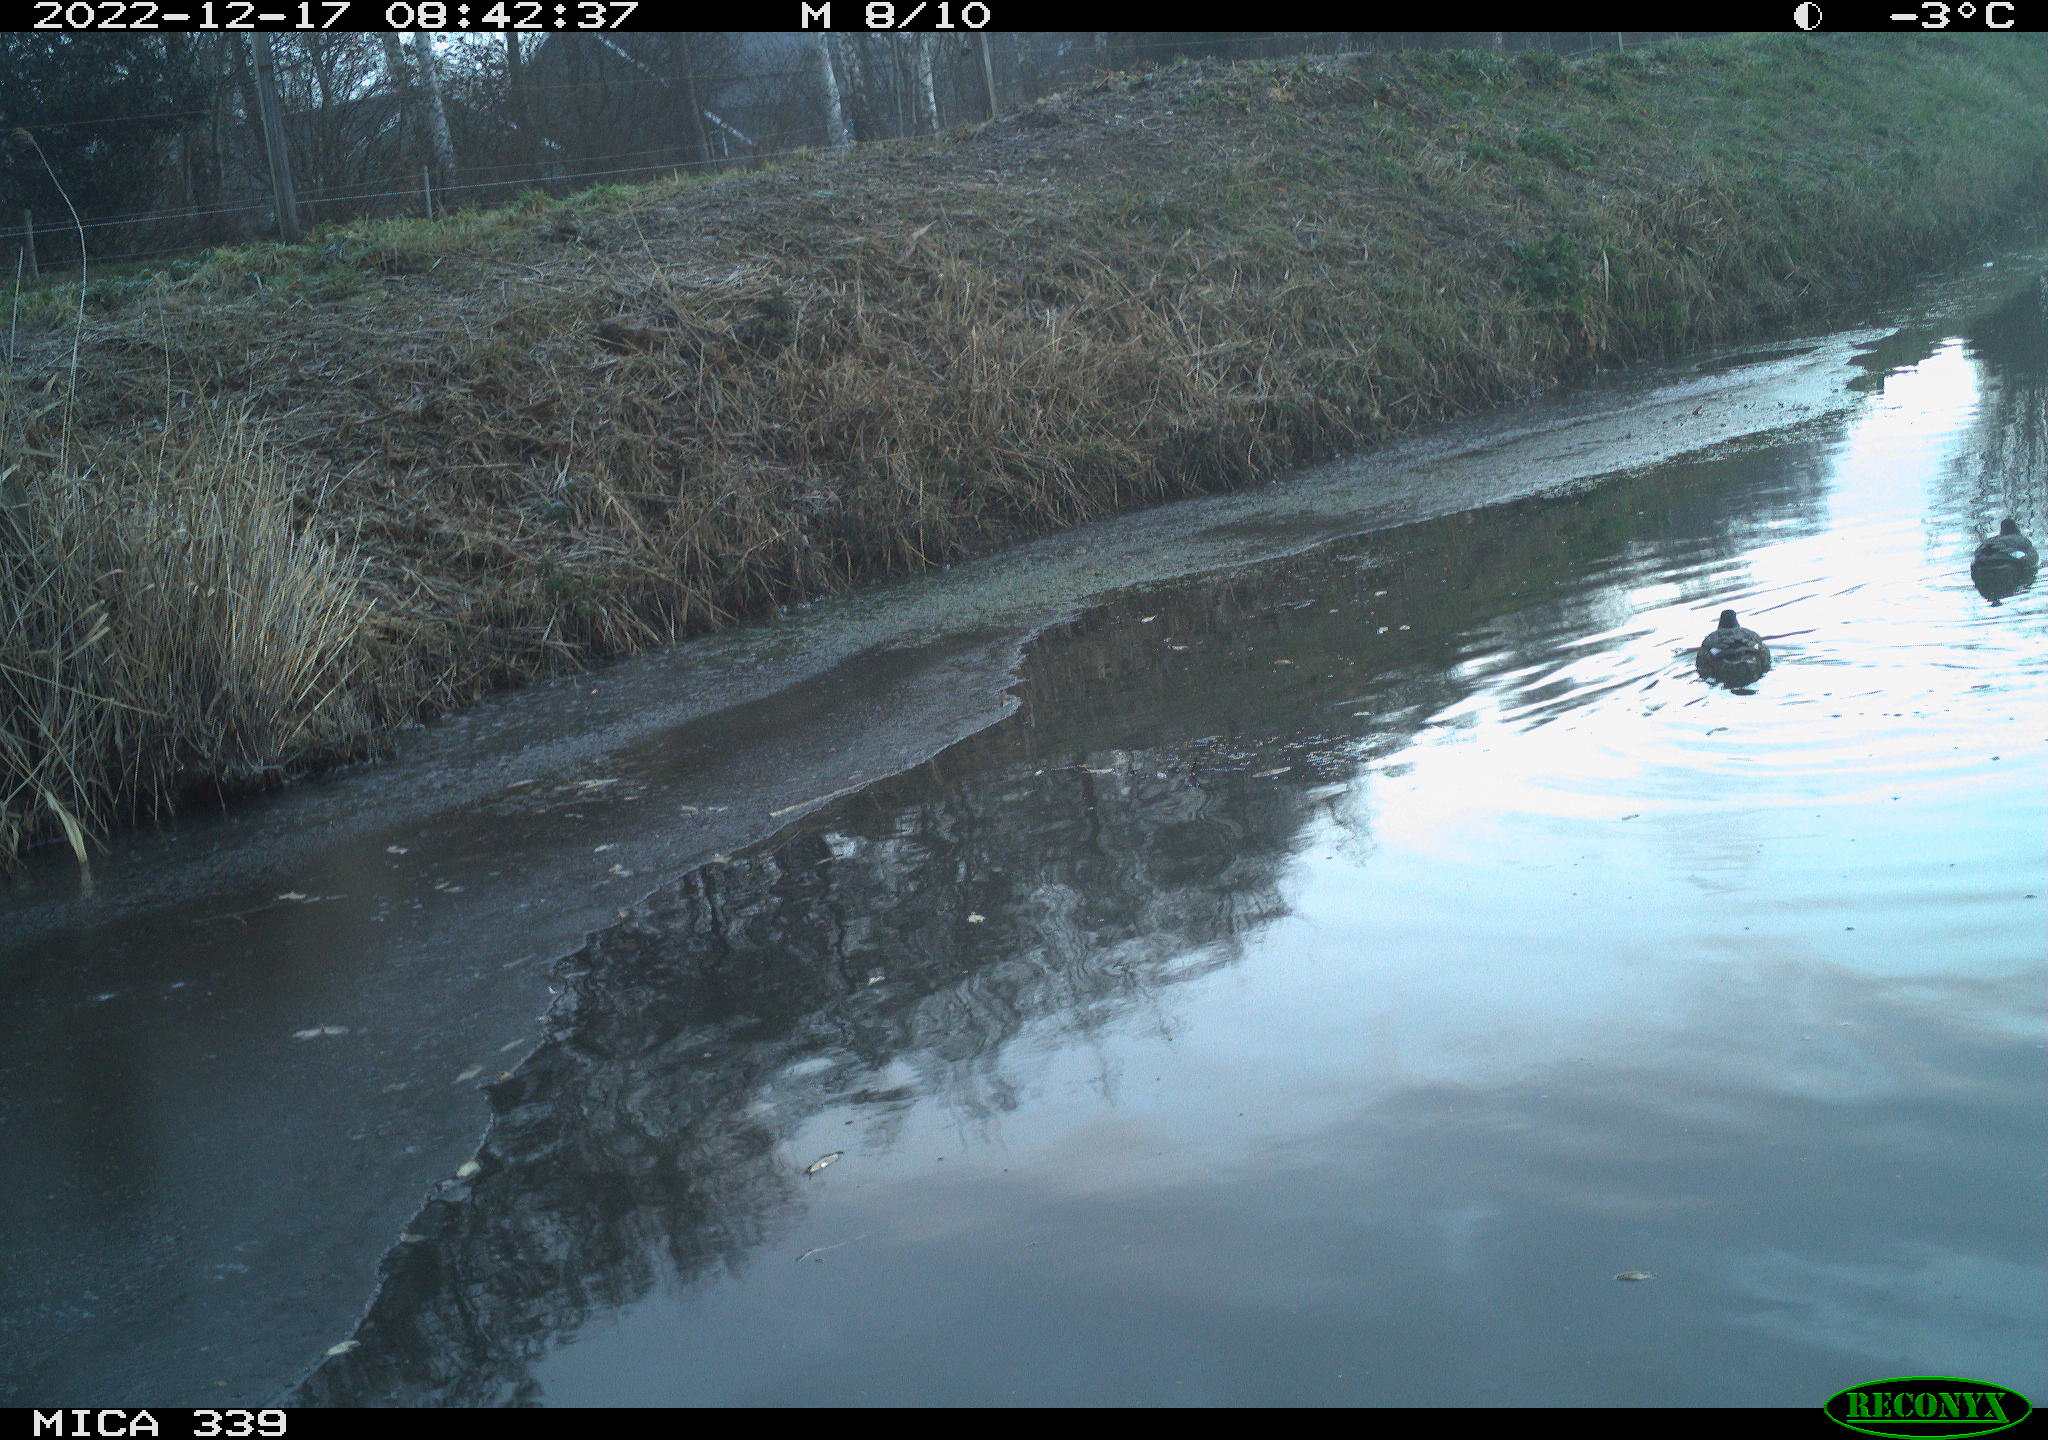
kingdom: Animalia
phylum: Chordata
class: Aves
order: Anseriformes
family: Anatidae
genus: Anas
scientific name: Anas
